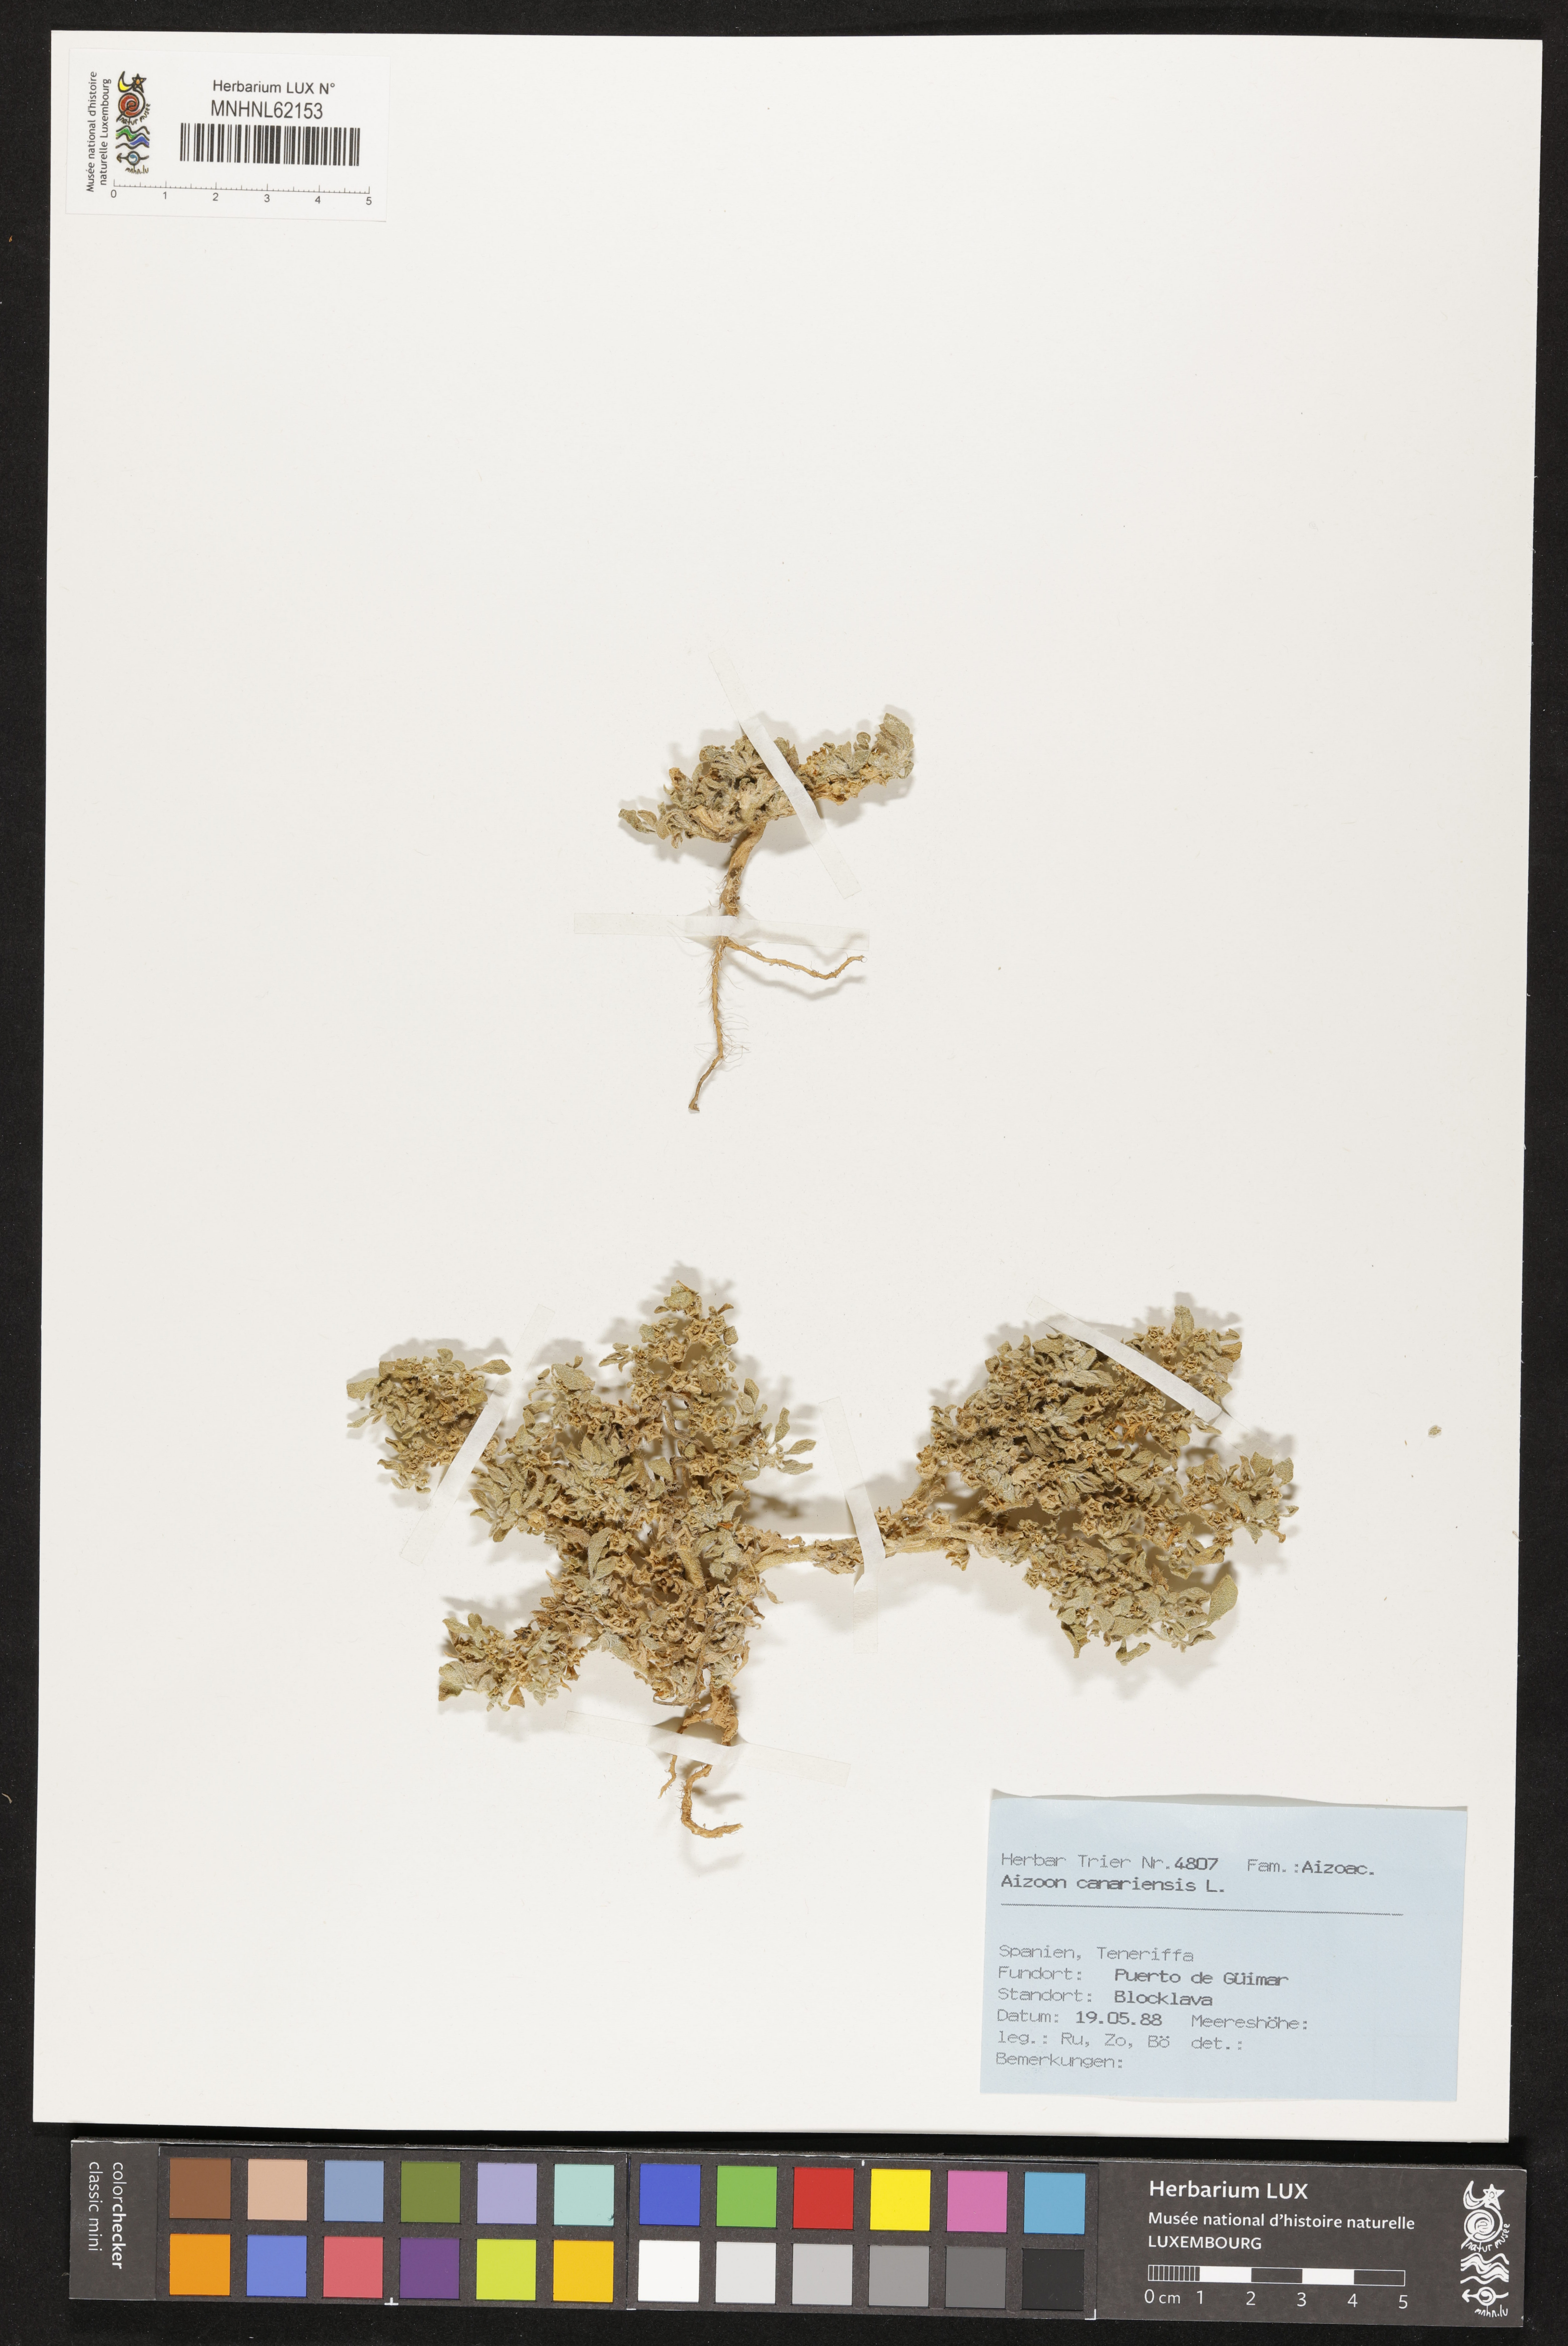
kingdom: Plantae
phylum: Tracheophyta
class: Magnoliopsida
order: Caryophyllales
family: Aizoaceae
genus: Aizoon
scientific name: Aizoon canariense
